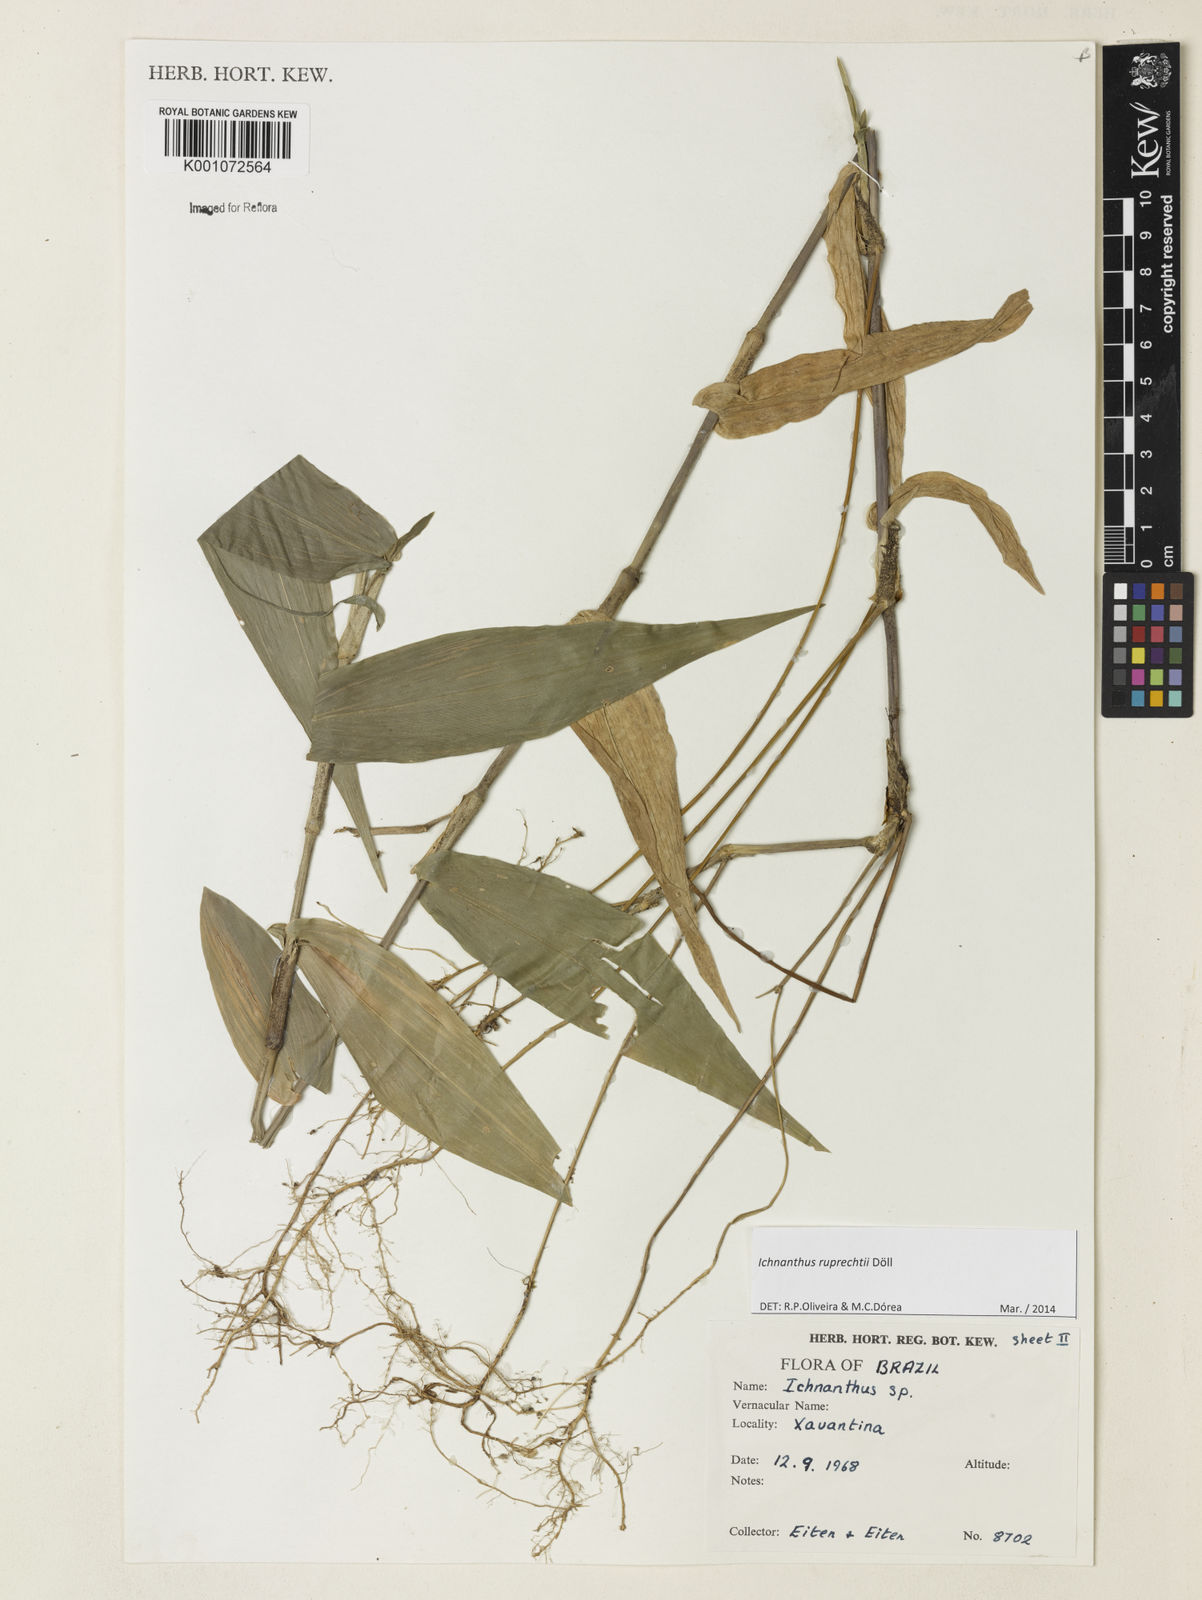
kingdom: Plantae
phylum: Tracheophyta
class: Liliopsida
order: Poales
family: Poaceae
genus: Ichnanthus
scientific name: Ichnanthus
